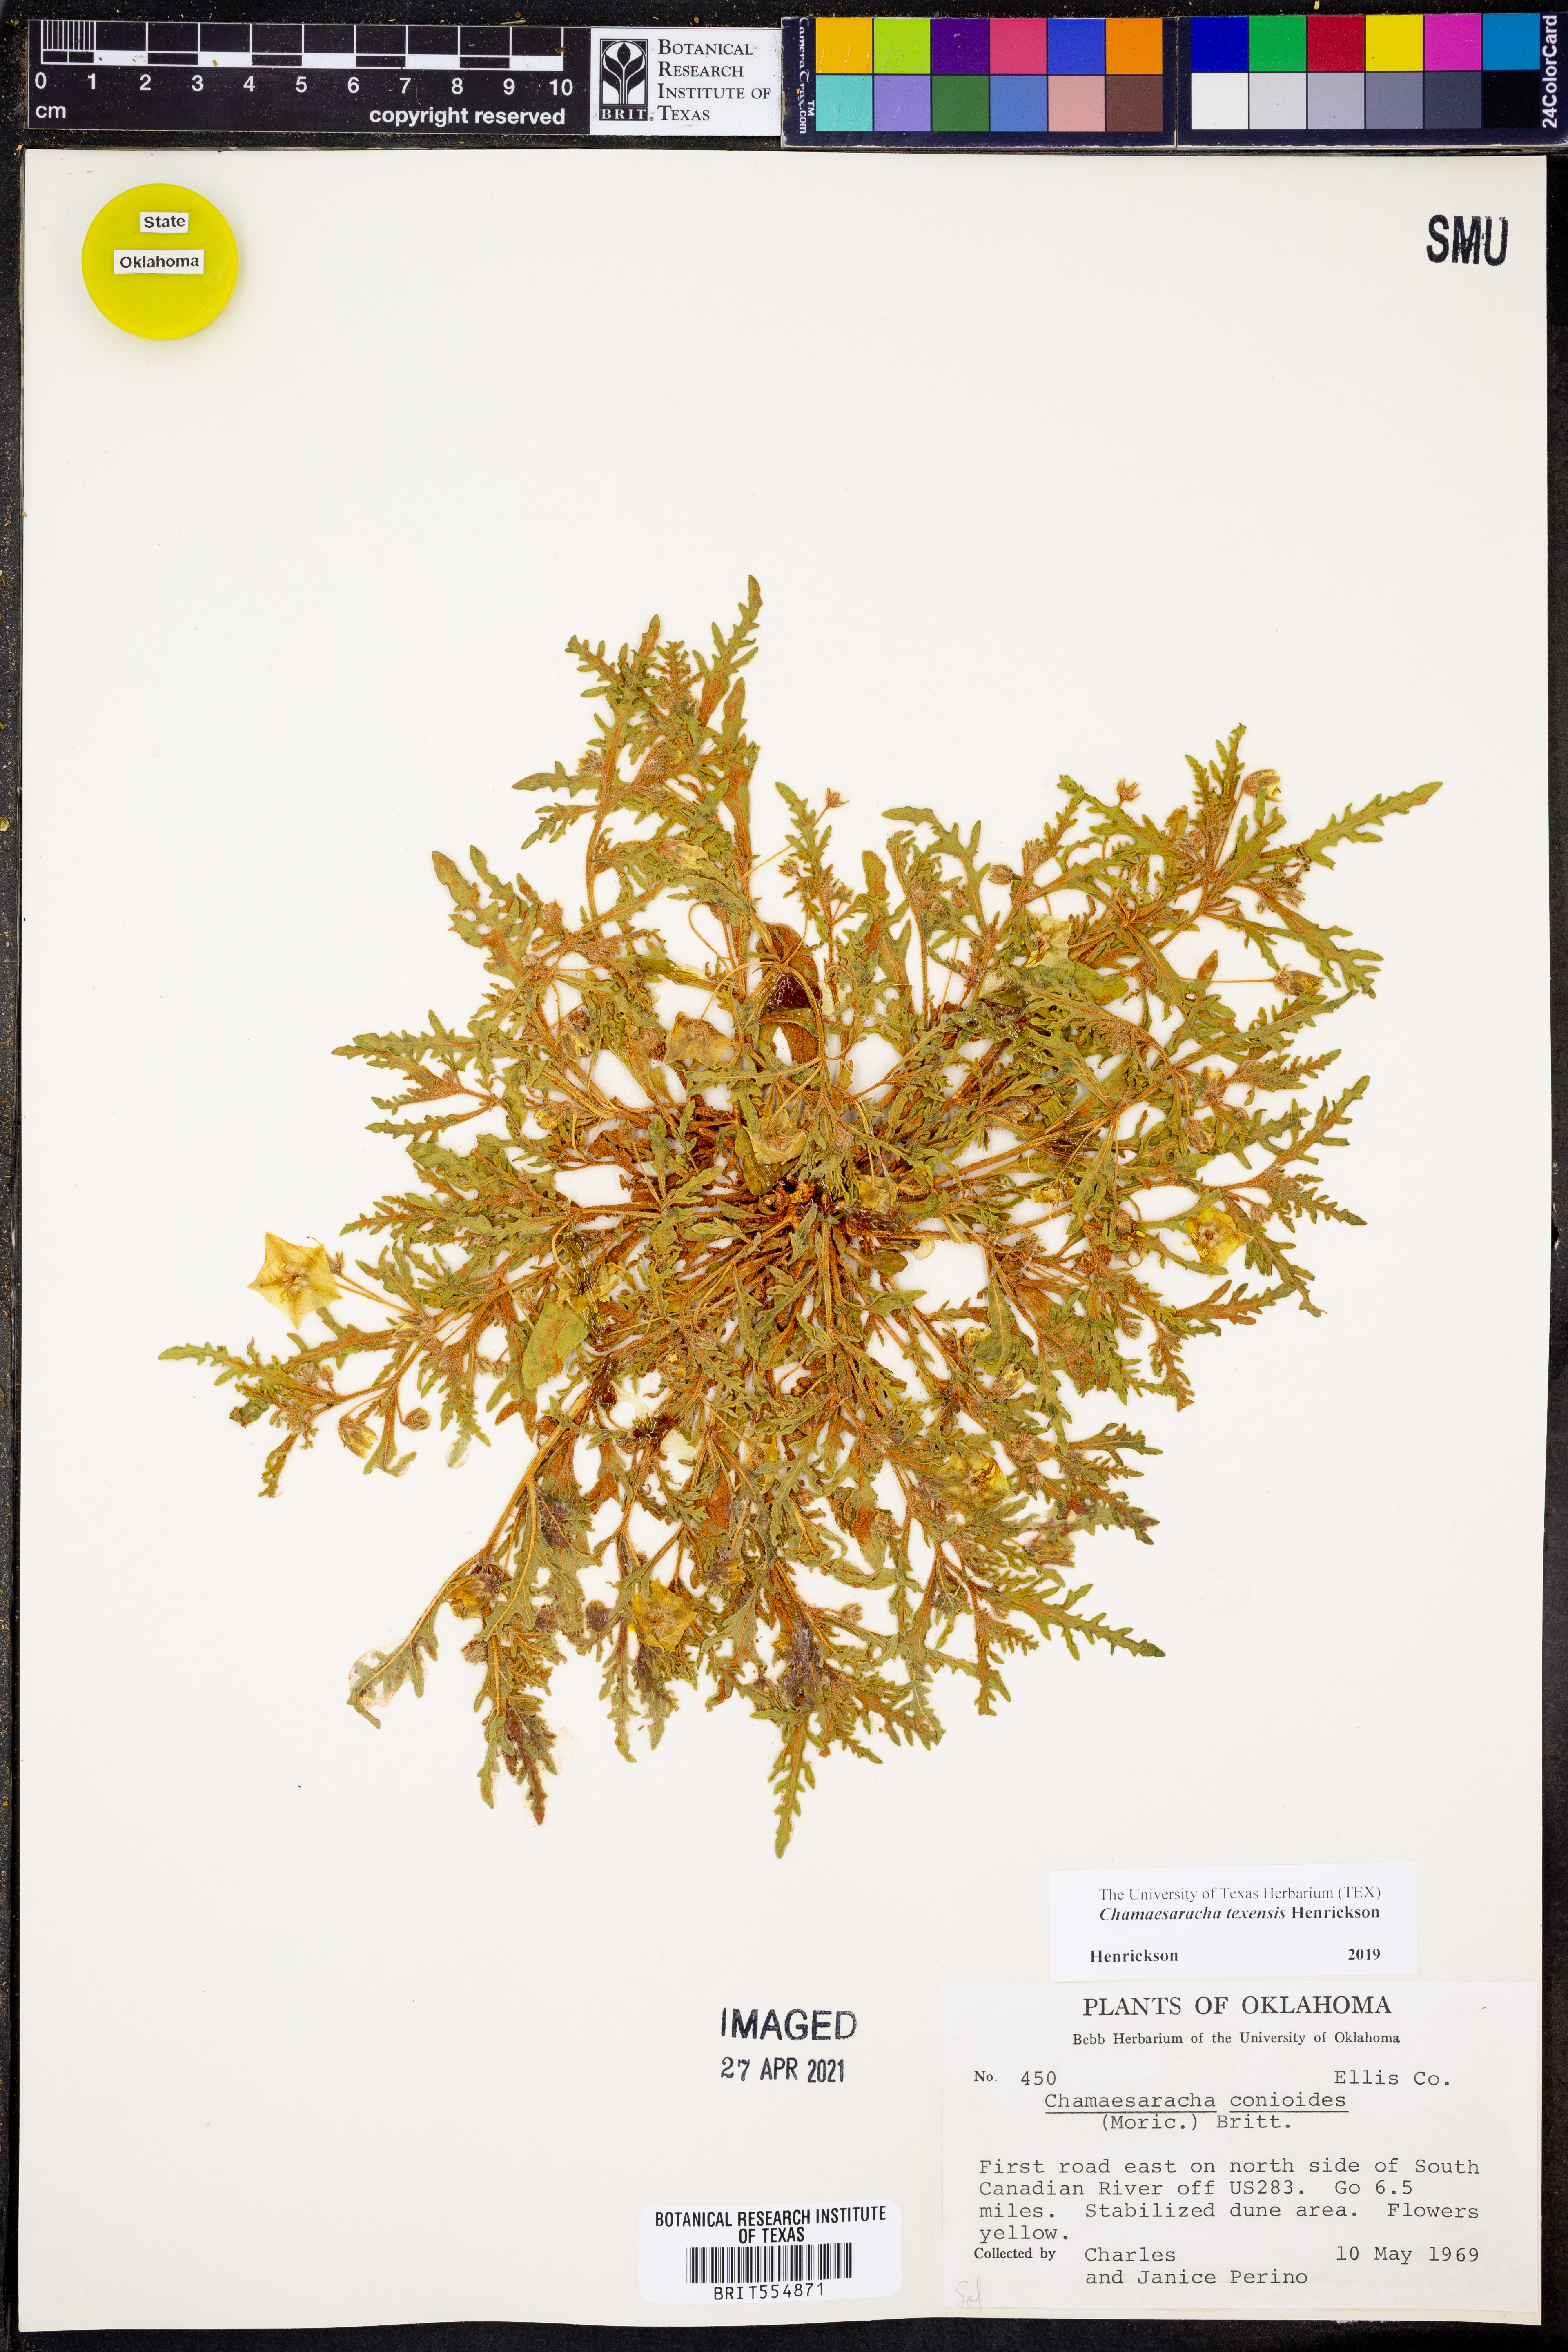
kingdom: Plantae
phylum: Tracheophyta
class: Magnoliopsida
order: Solanales
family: Solanaceae
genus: Chamaesaracha
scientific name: Chamaesaracha texensis
